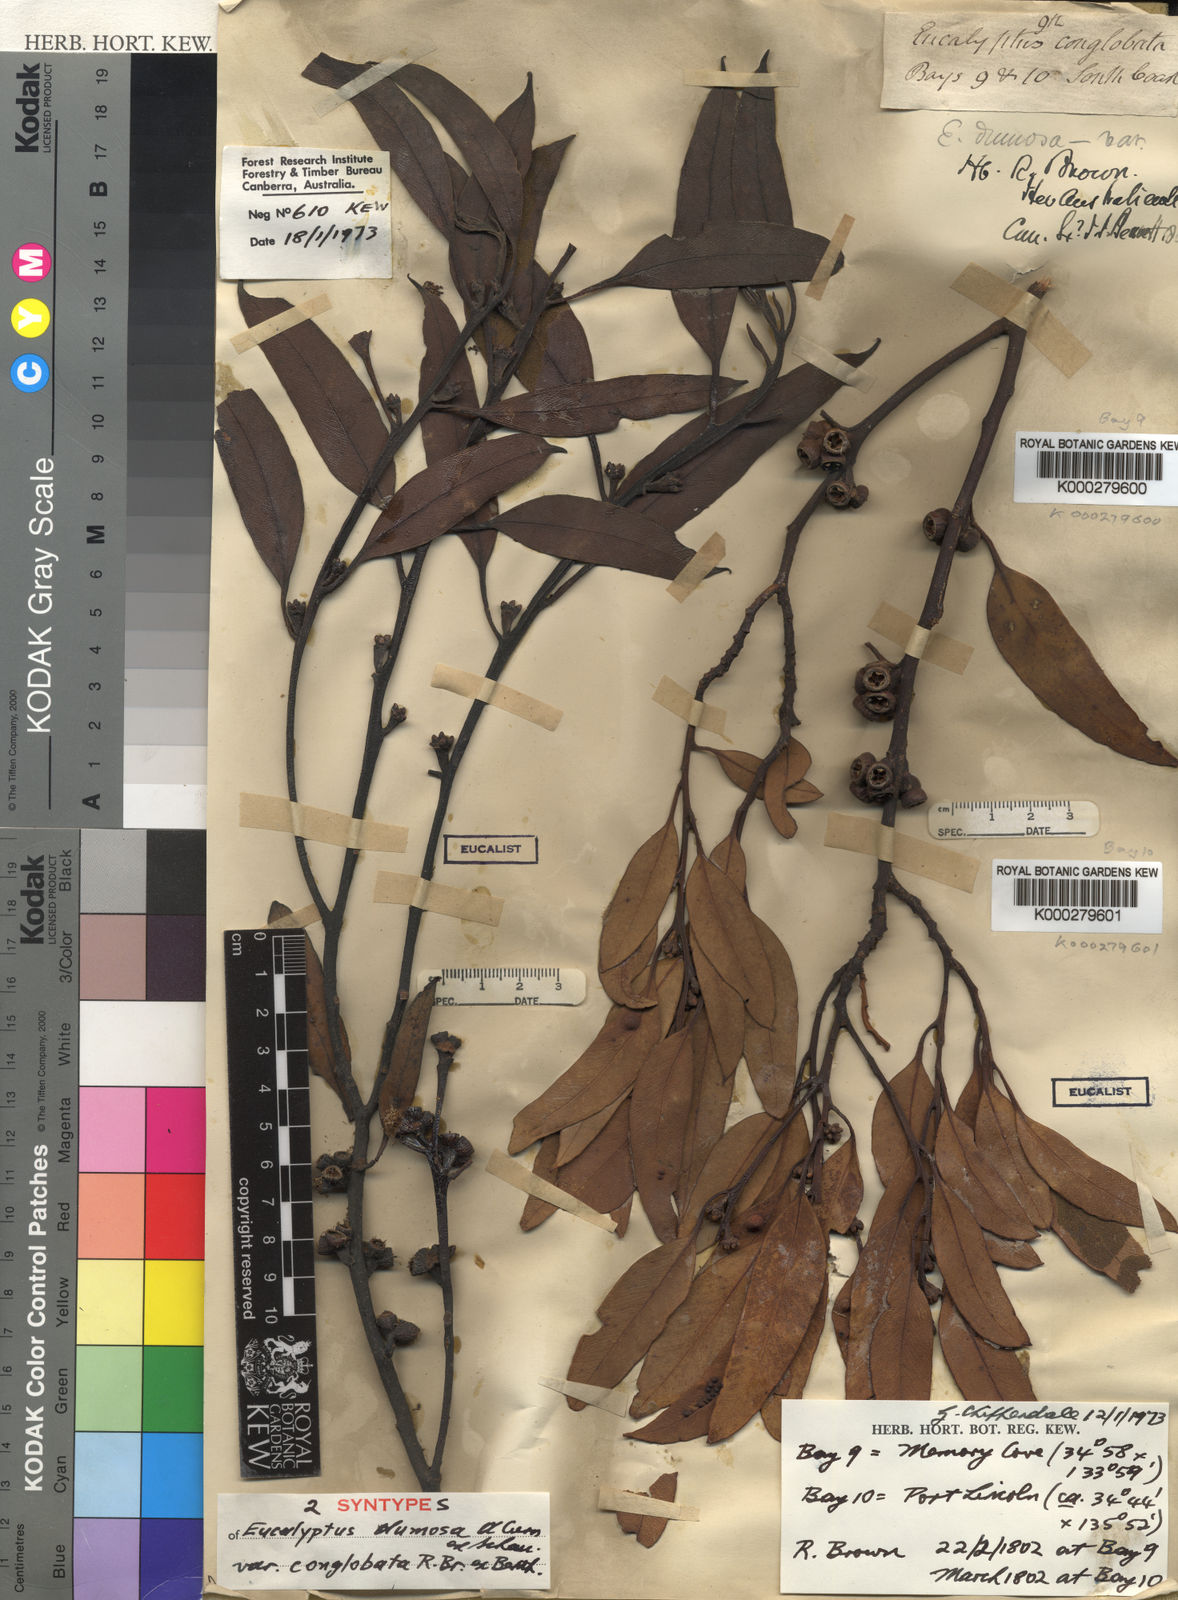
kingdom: Plantae
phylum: Tracheophyta
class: Magnoliopsida
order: Myrtales
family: Myrtaceae
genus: Eucalyptus
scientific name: Eucalyptus conglobata
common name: Port lincoln mallee
